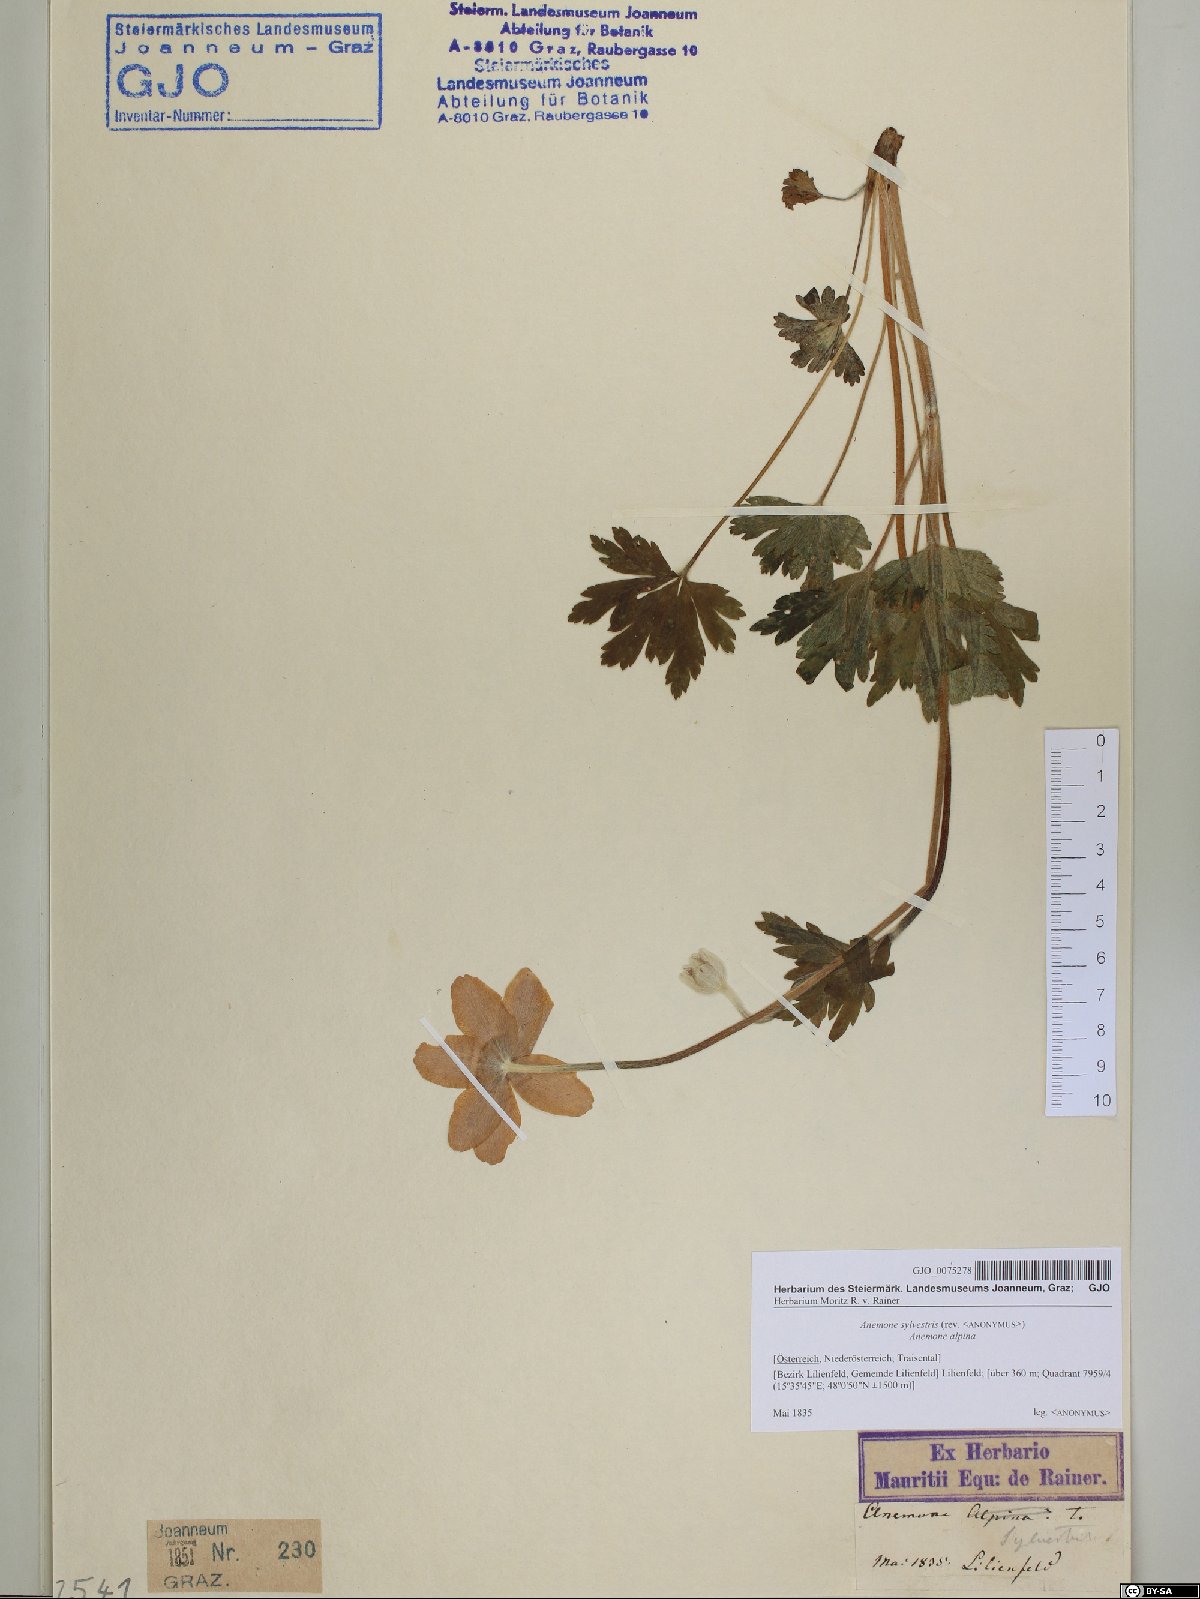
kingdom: Plantae
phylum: Tracheophyta
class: Magnoliopsida
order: Ranunculales
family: Ranunculaceae
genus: Anemone
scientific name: Anemone sylvestris
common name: Snowdrop anemone
